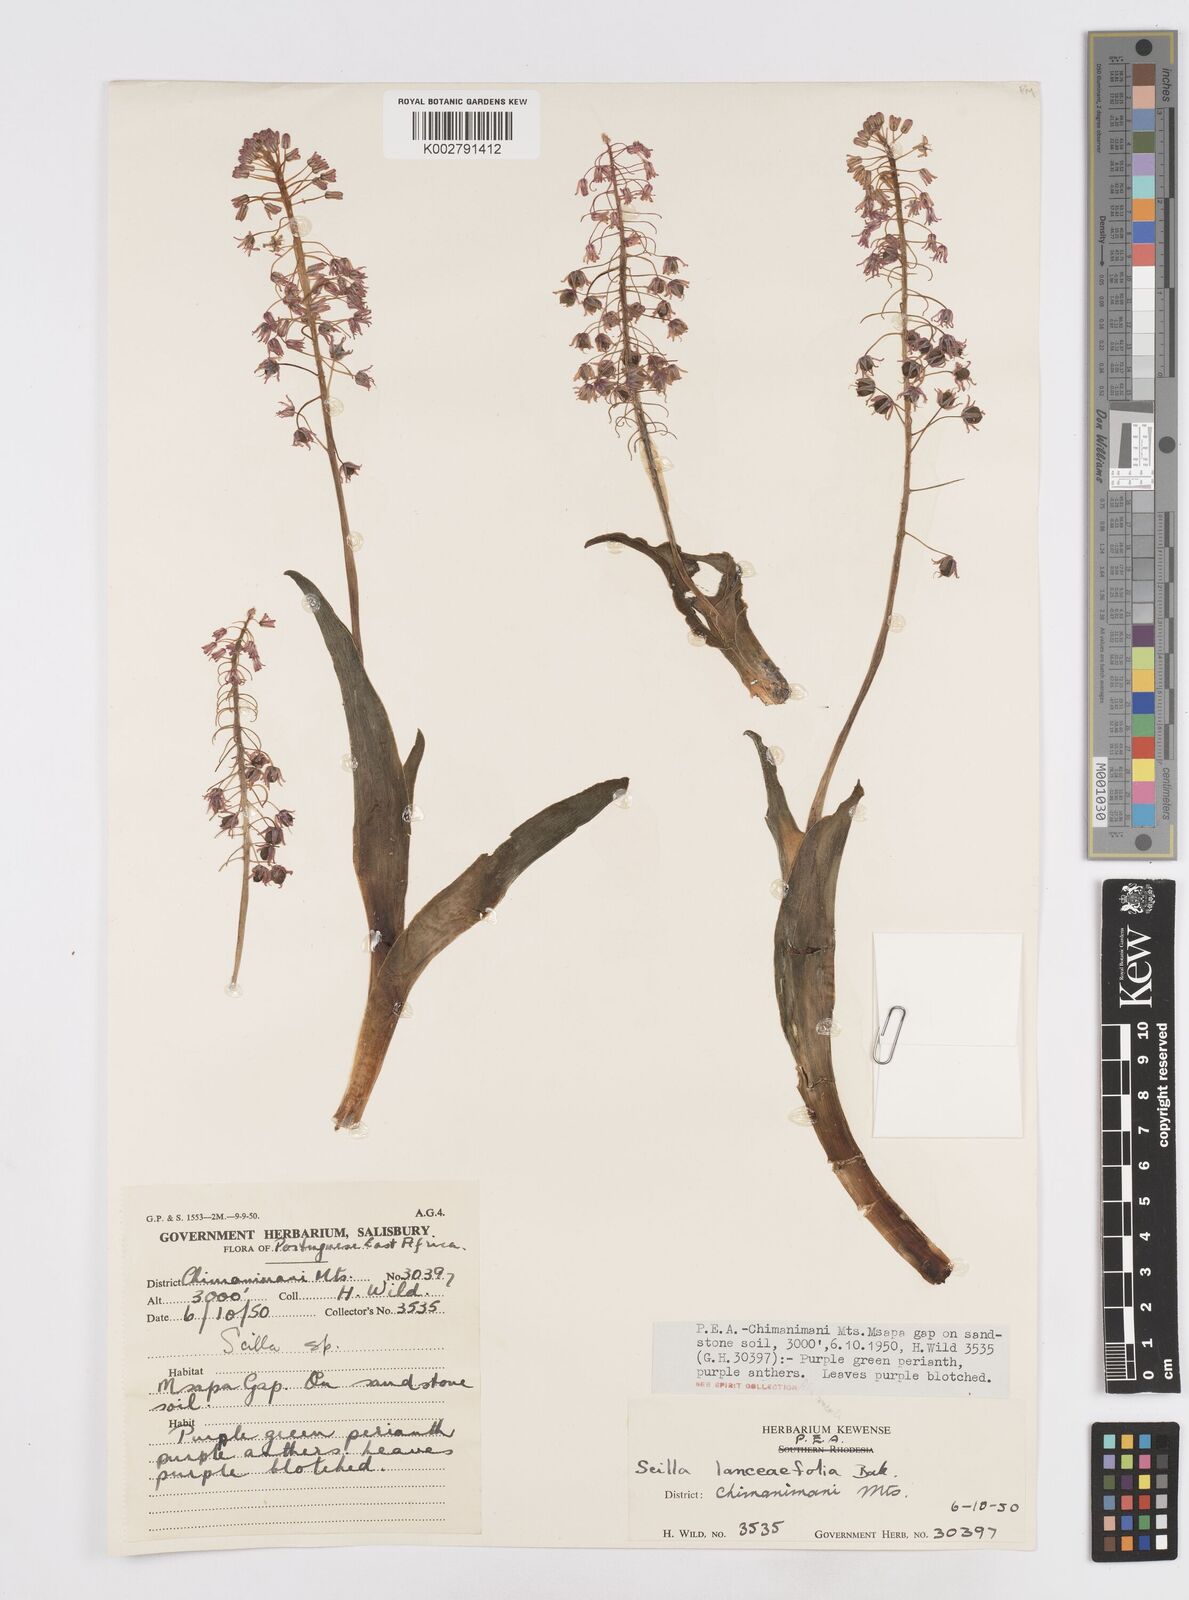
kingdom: Plantae
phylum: Tracheophyta
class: Liliopsida
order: Asparagales
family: Asparagaceae
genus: Ledebouria
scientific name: Ledebouria revoluta
